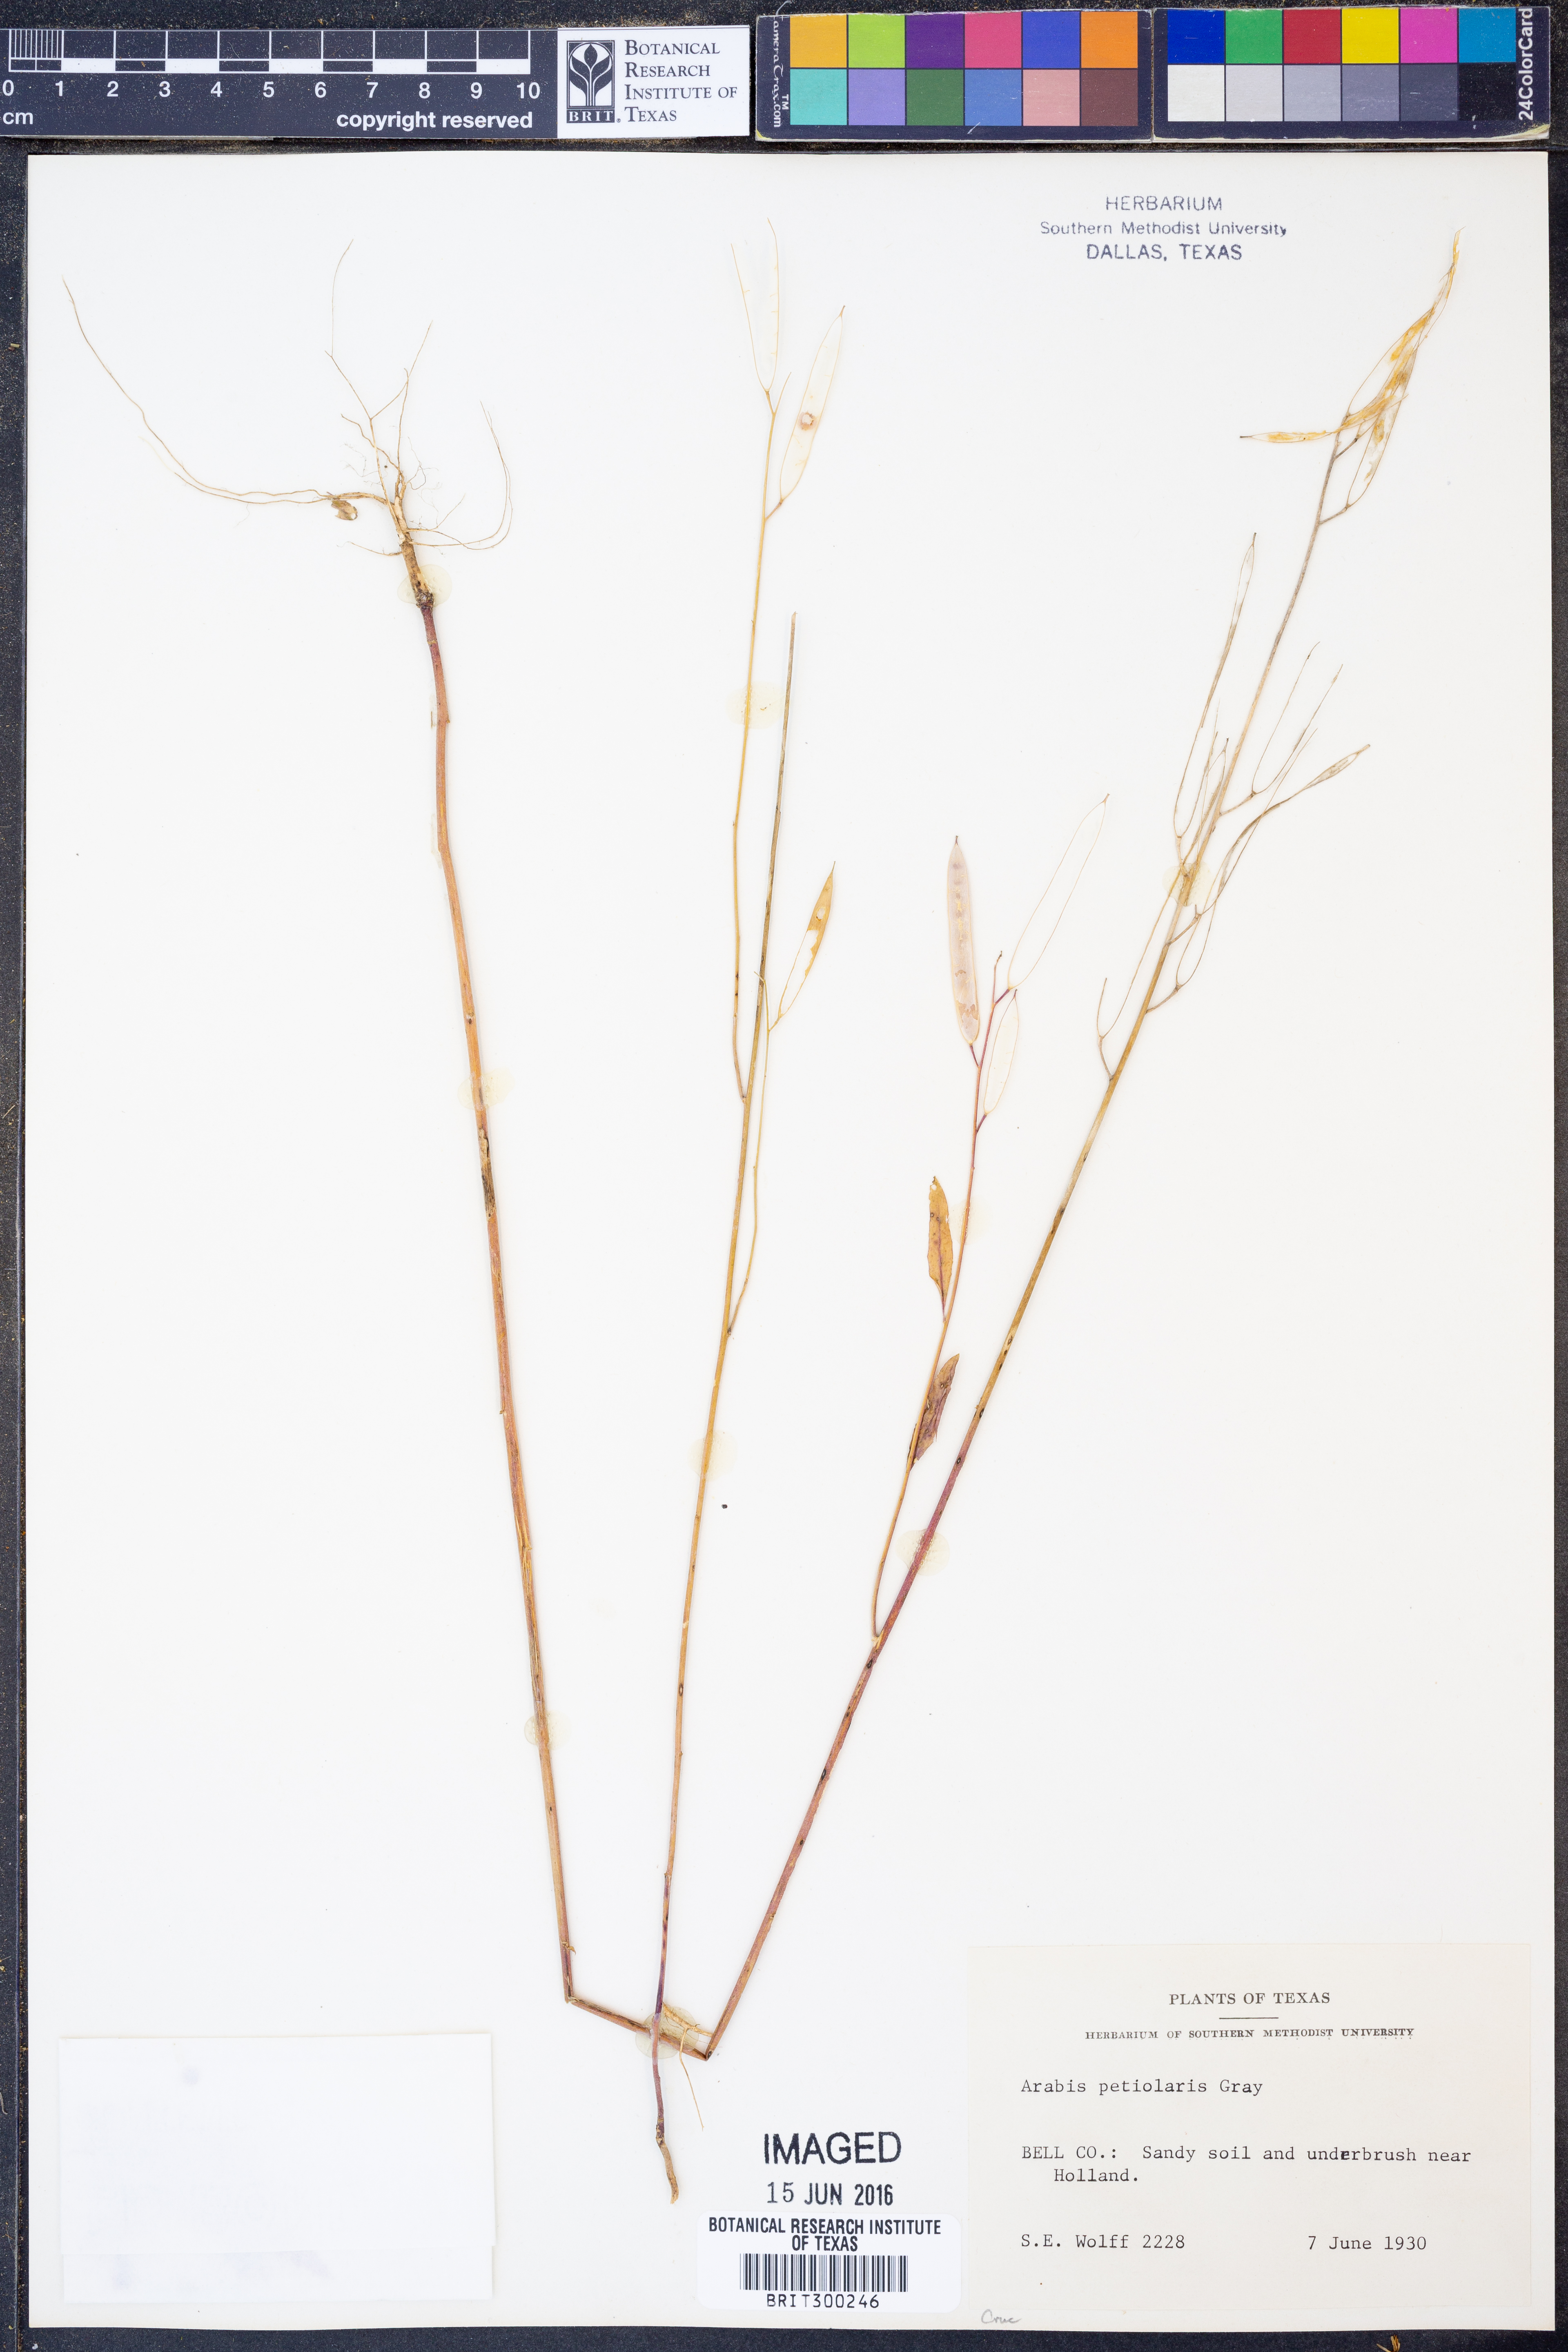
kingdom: Plantae
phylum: Tracheophyta
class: Magnoliopsida
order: Brassicales
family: Brassicaceae
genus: Streptanthus
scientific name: Streptanthus petiolaris
